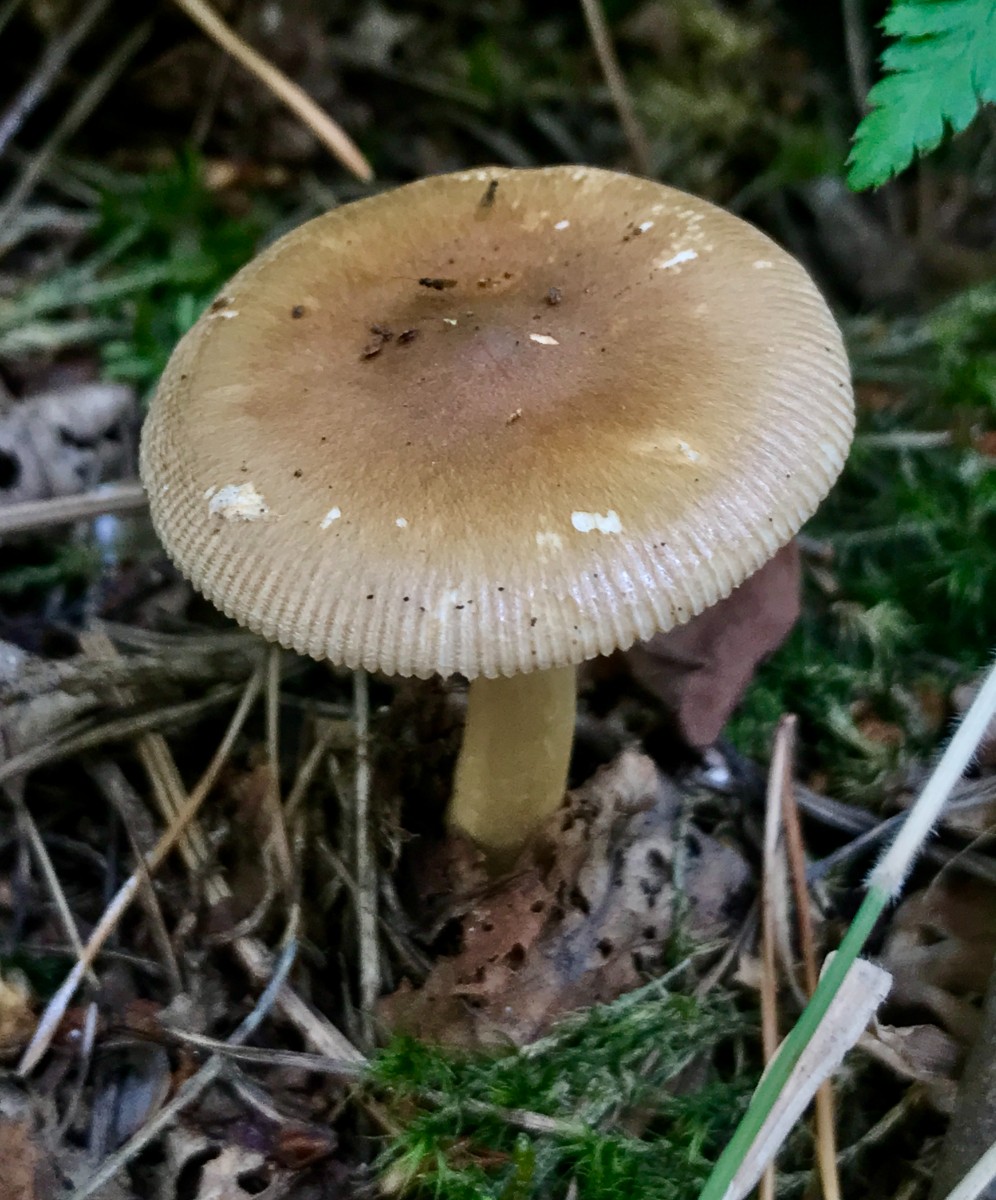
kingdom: Fungi
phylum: Basidiomycota
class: Agaricomycetes
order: Agaricales
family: Amanitaceae
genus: Amanita
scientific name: Amanita fulva
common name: brun kam-fluesvamp
